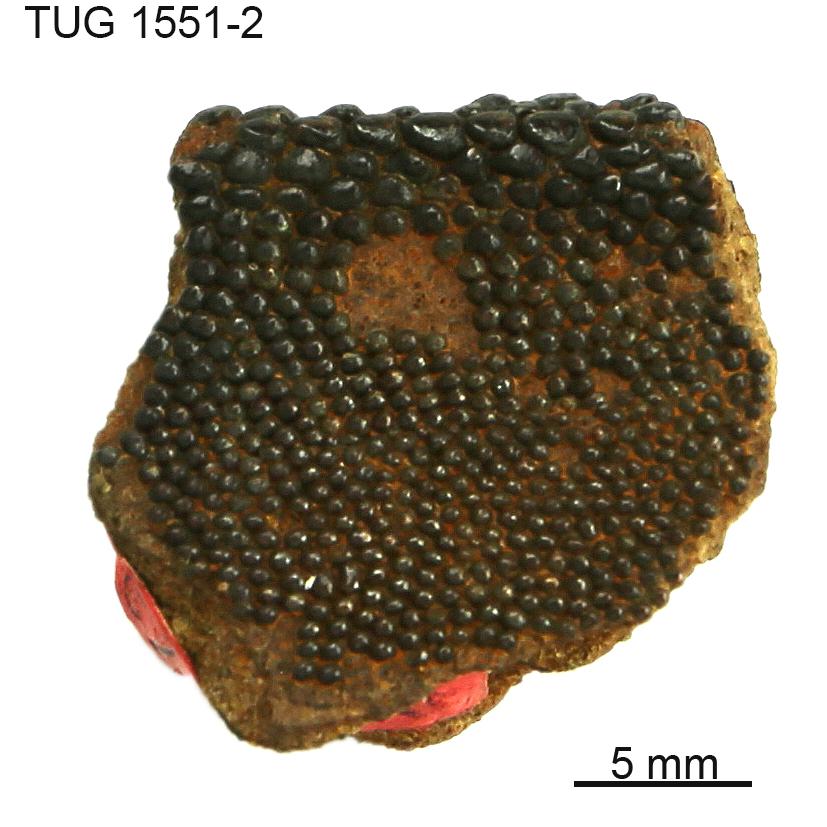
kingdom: Animalia
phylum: Chordata
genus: Guerichosteus
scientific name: Guerichosteus
